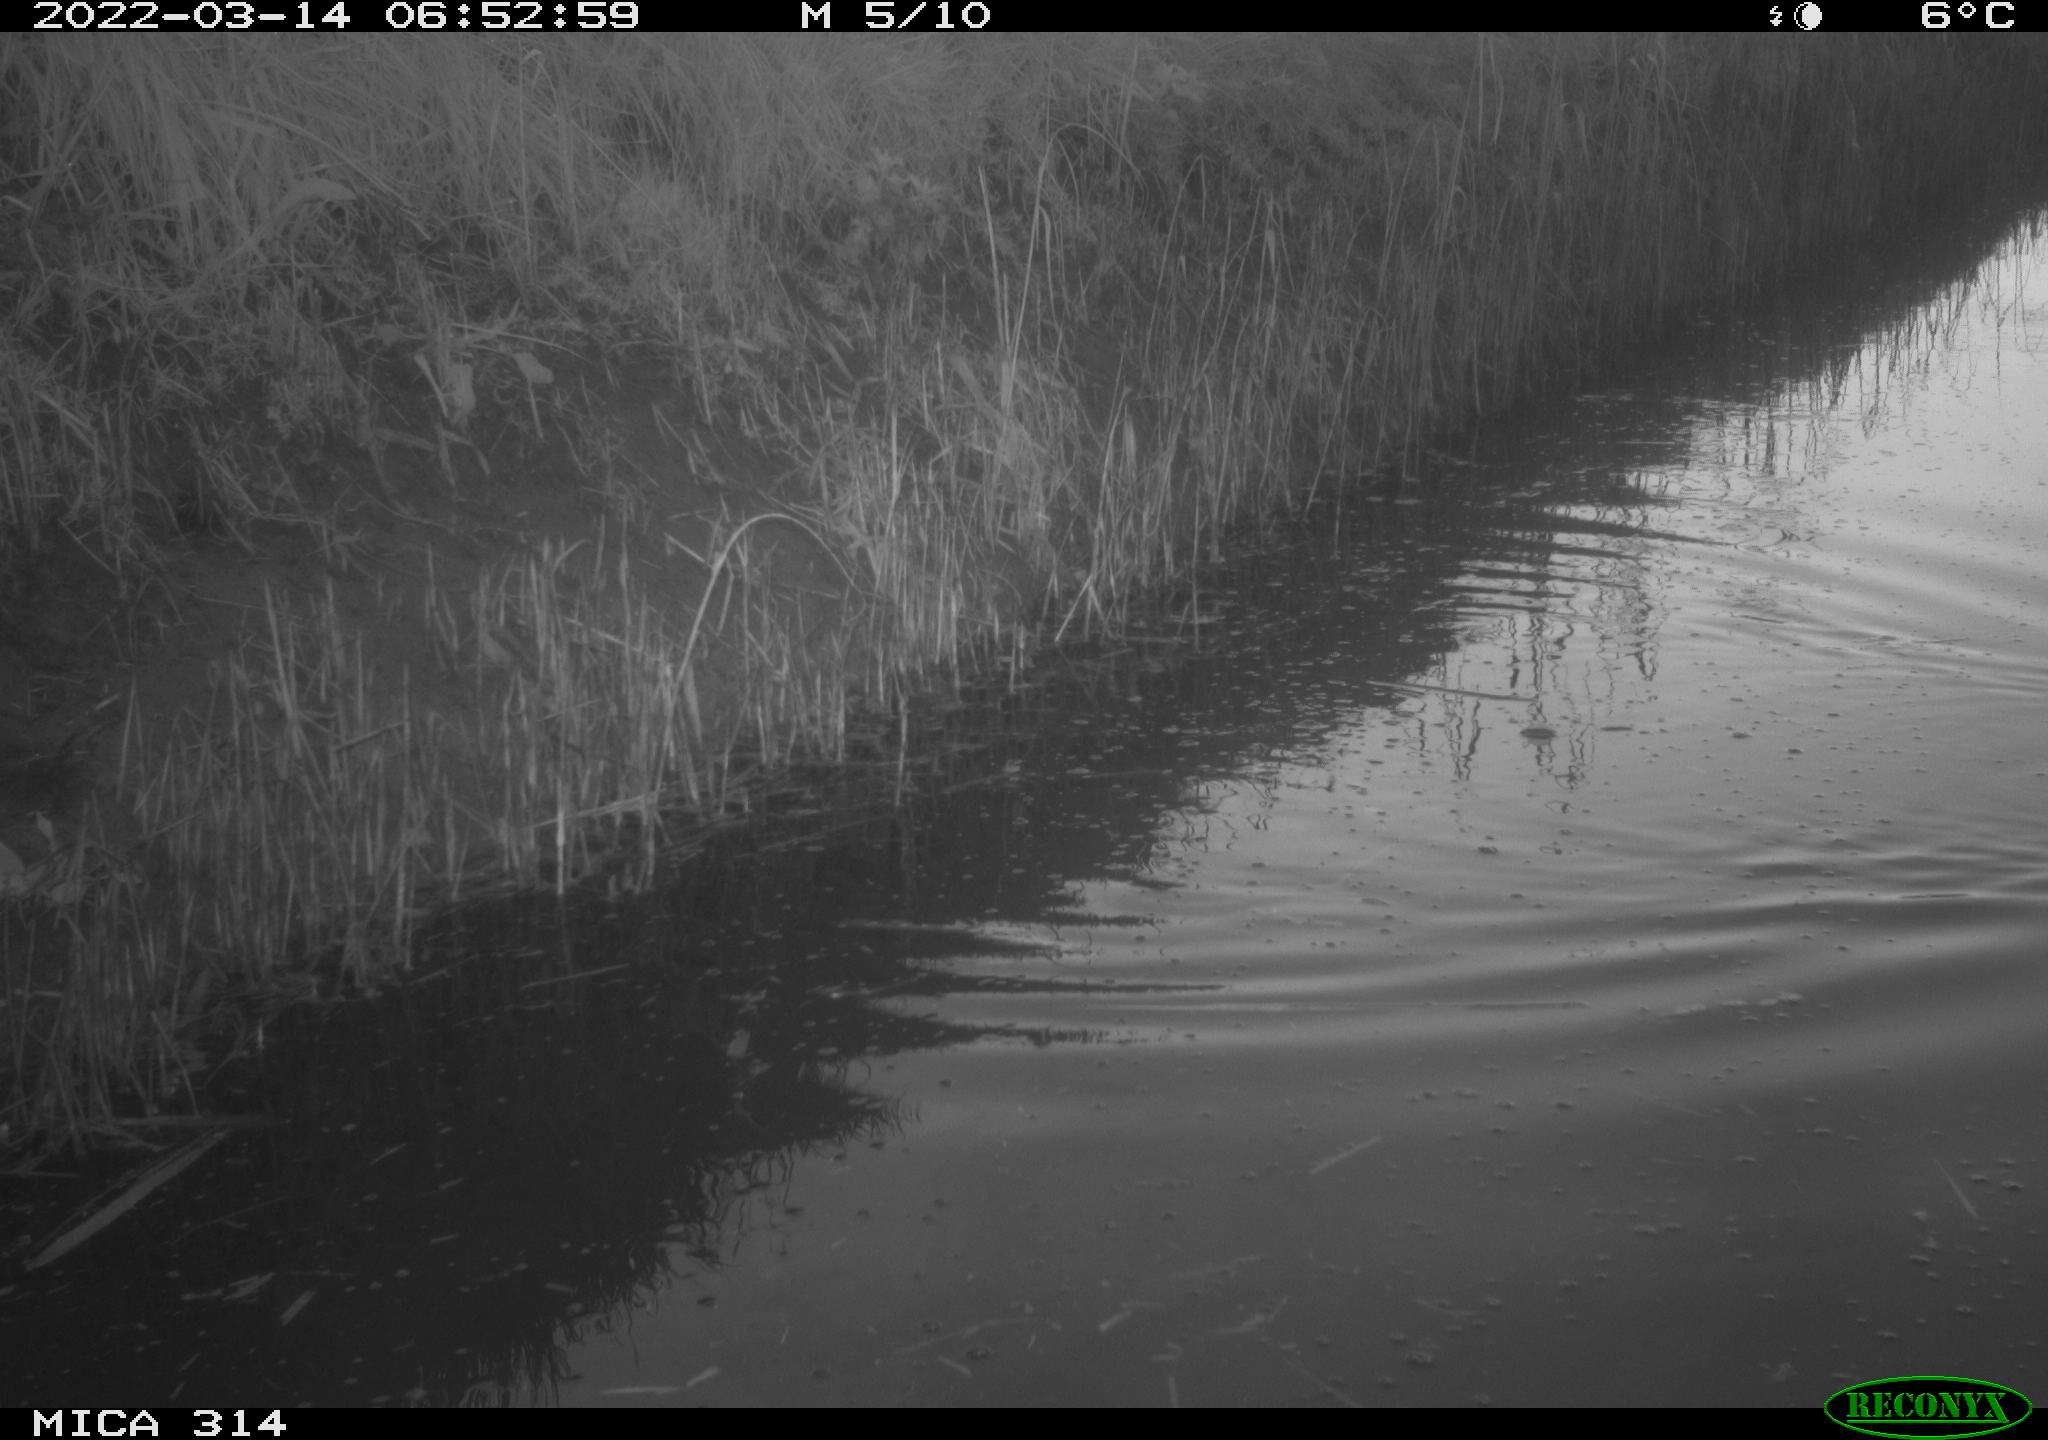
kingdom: Animalia
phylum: Chordata
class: Aves
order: Gruiformes
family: Rallidae
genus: Gallinula
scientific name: Gallinula chloropus
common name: Common moorhen
